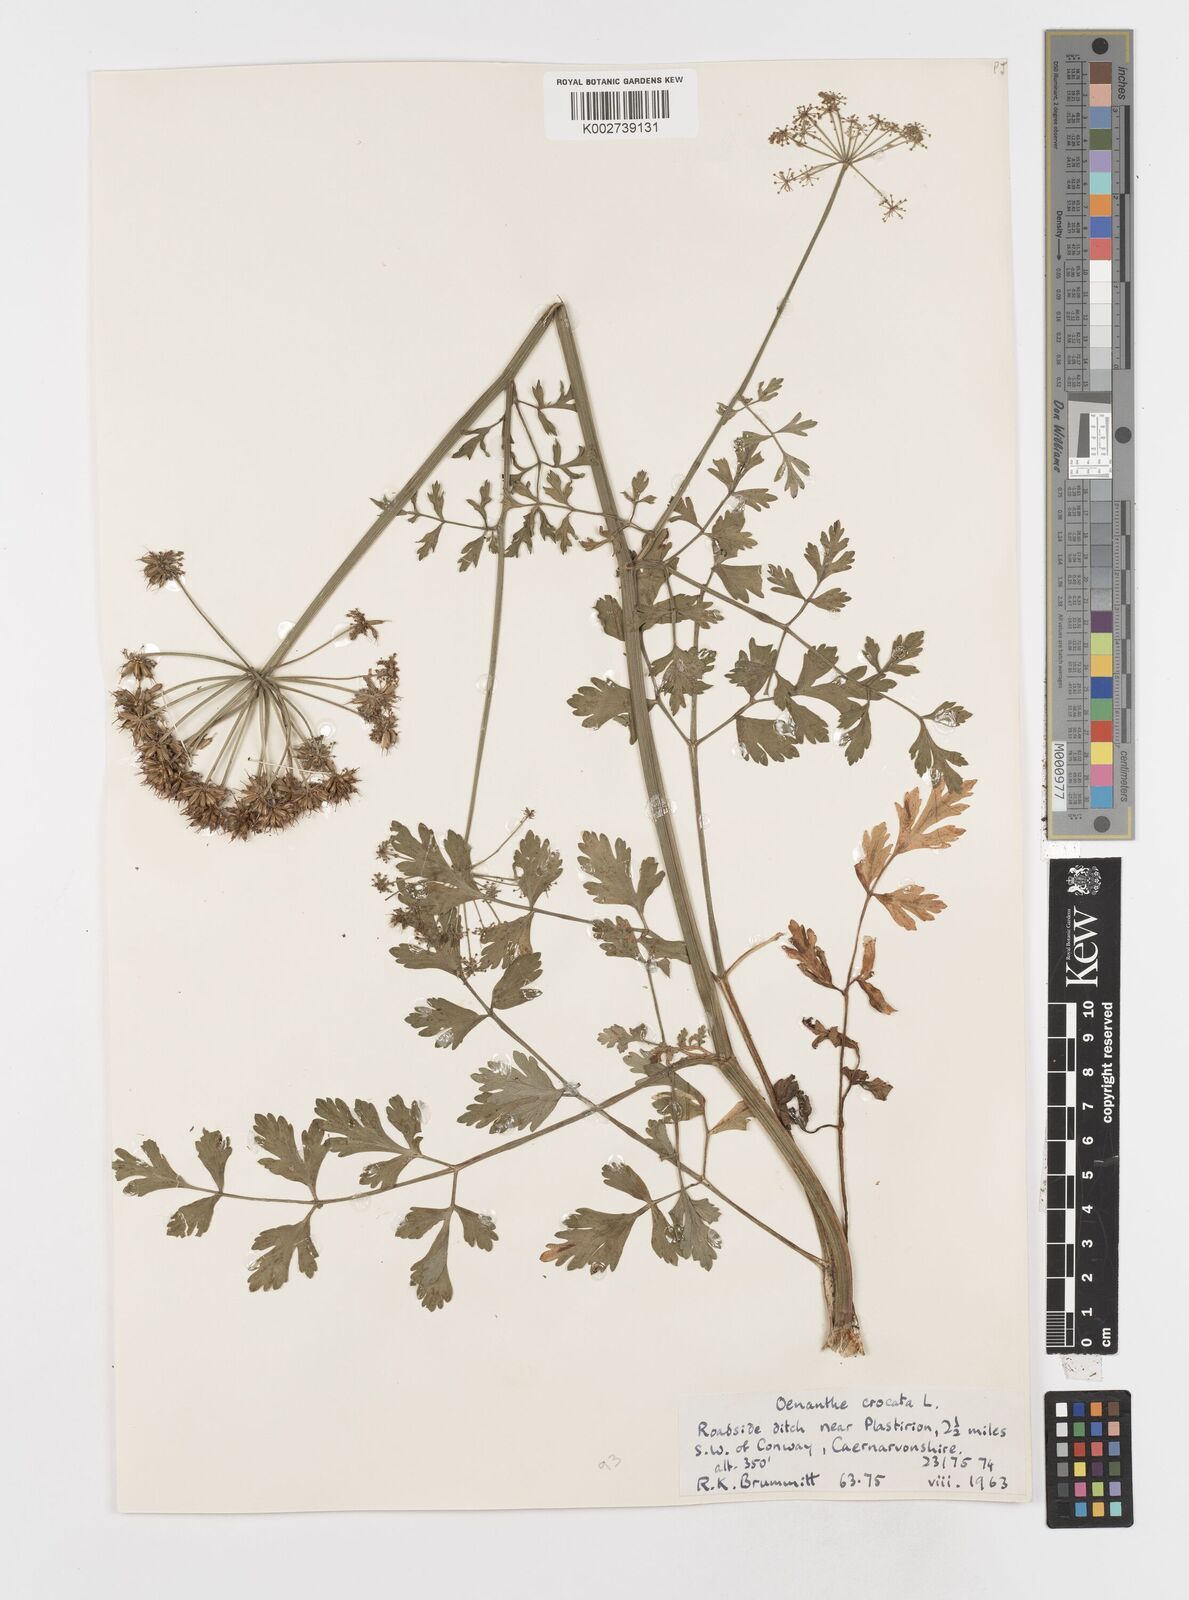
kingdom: Plantae
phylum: Tracheophyta
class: Magnoliopsida
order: Apiales
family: Apiaceae
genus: Oenanthe
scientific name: Oenanthe crocata
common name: Hemlock water-dropwort
